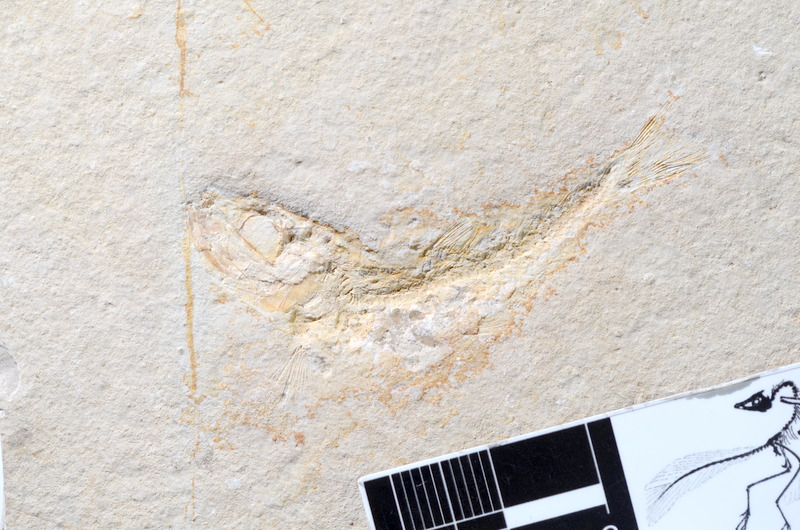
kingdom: Animalia
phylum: Chordata
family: Ascalaboidae
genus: Tharsis
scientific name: Tharsis dubius
